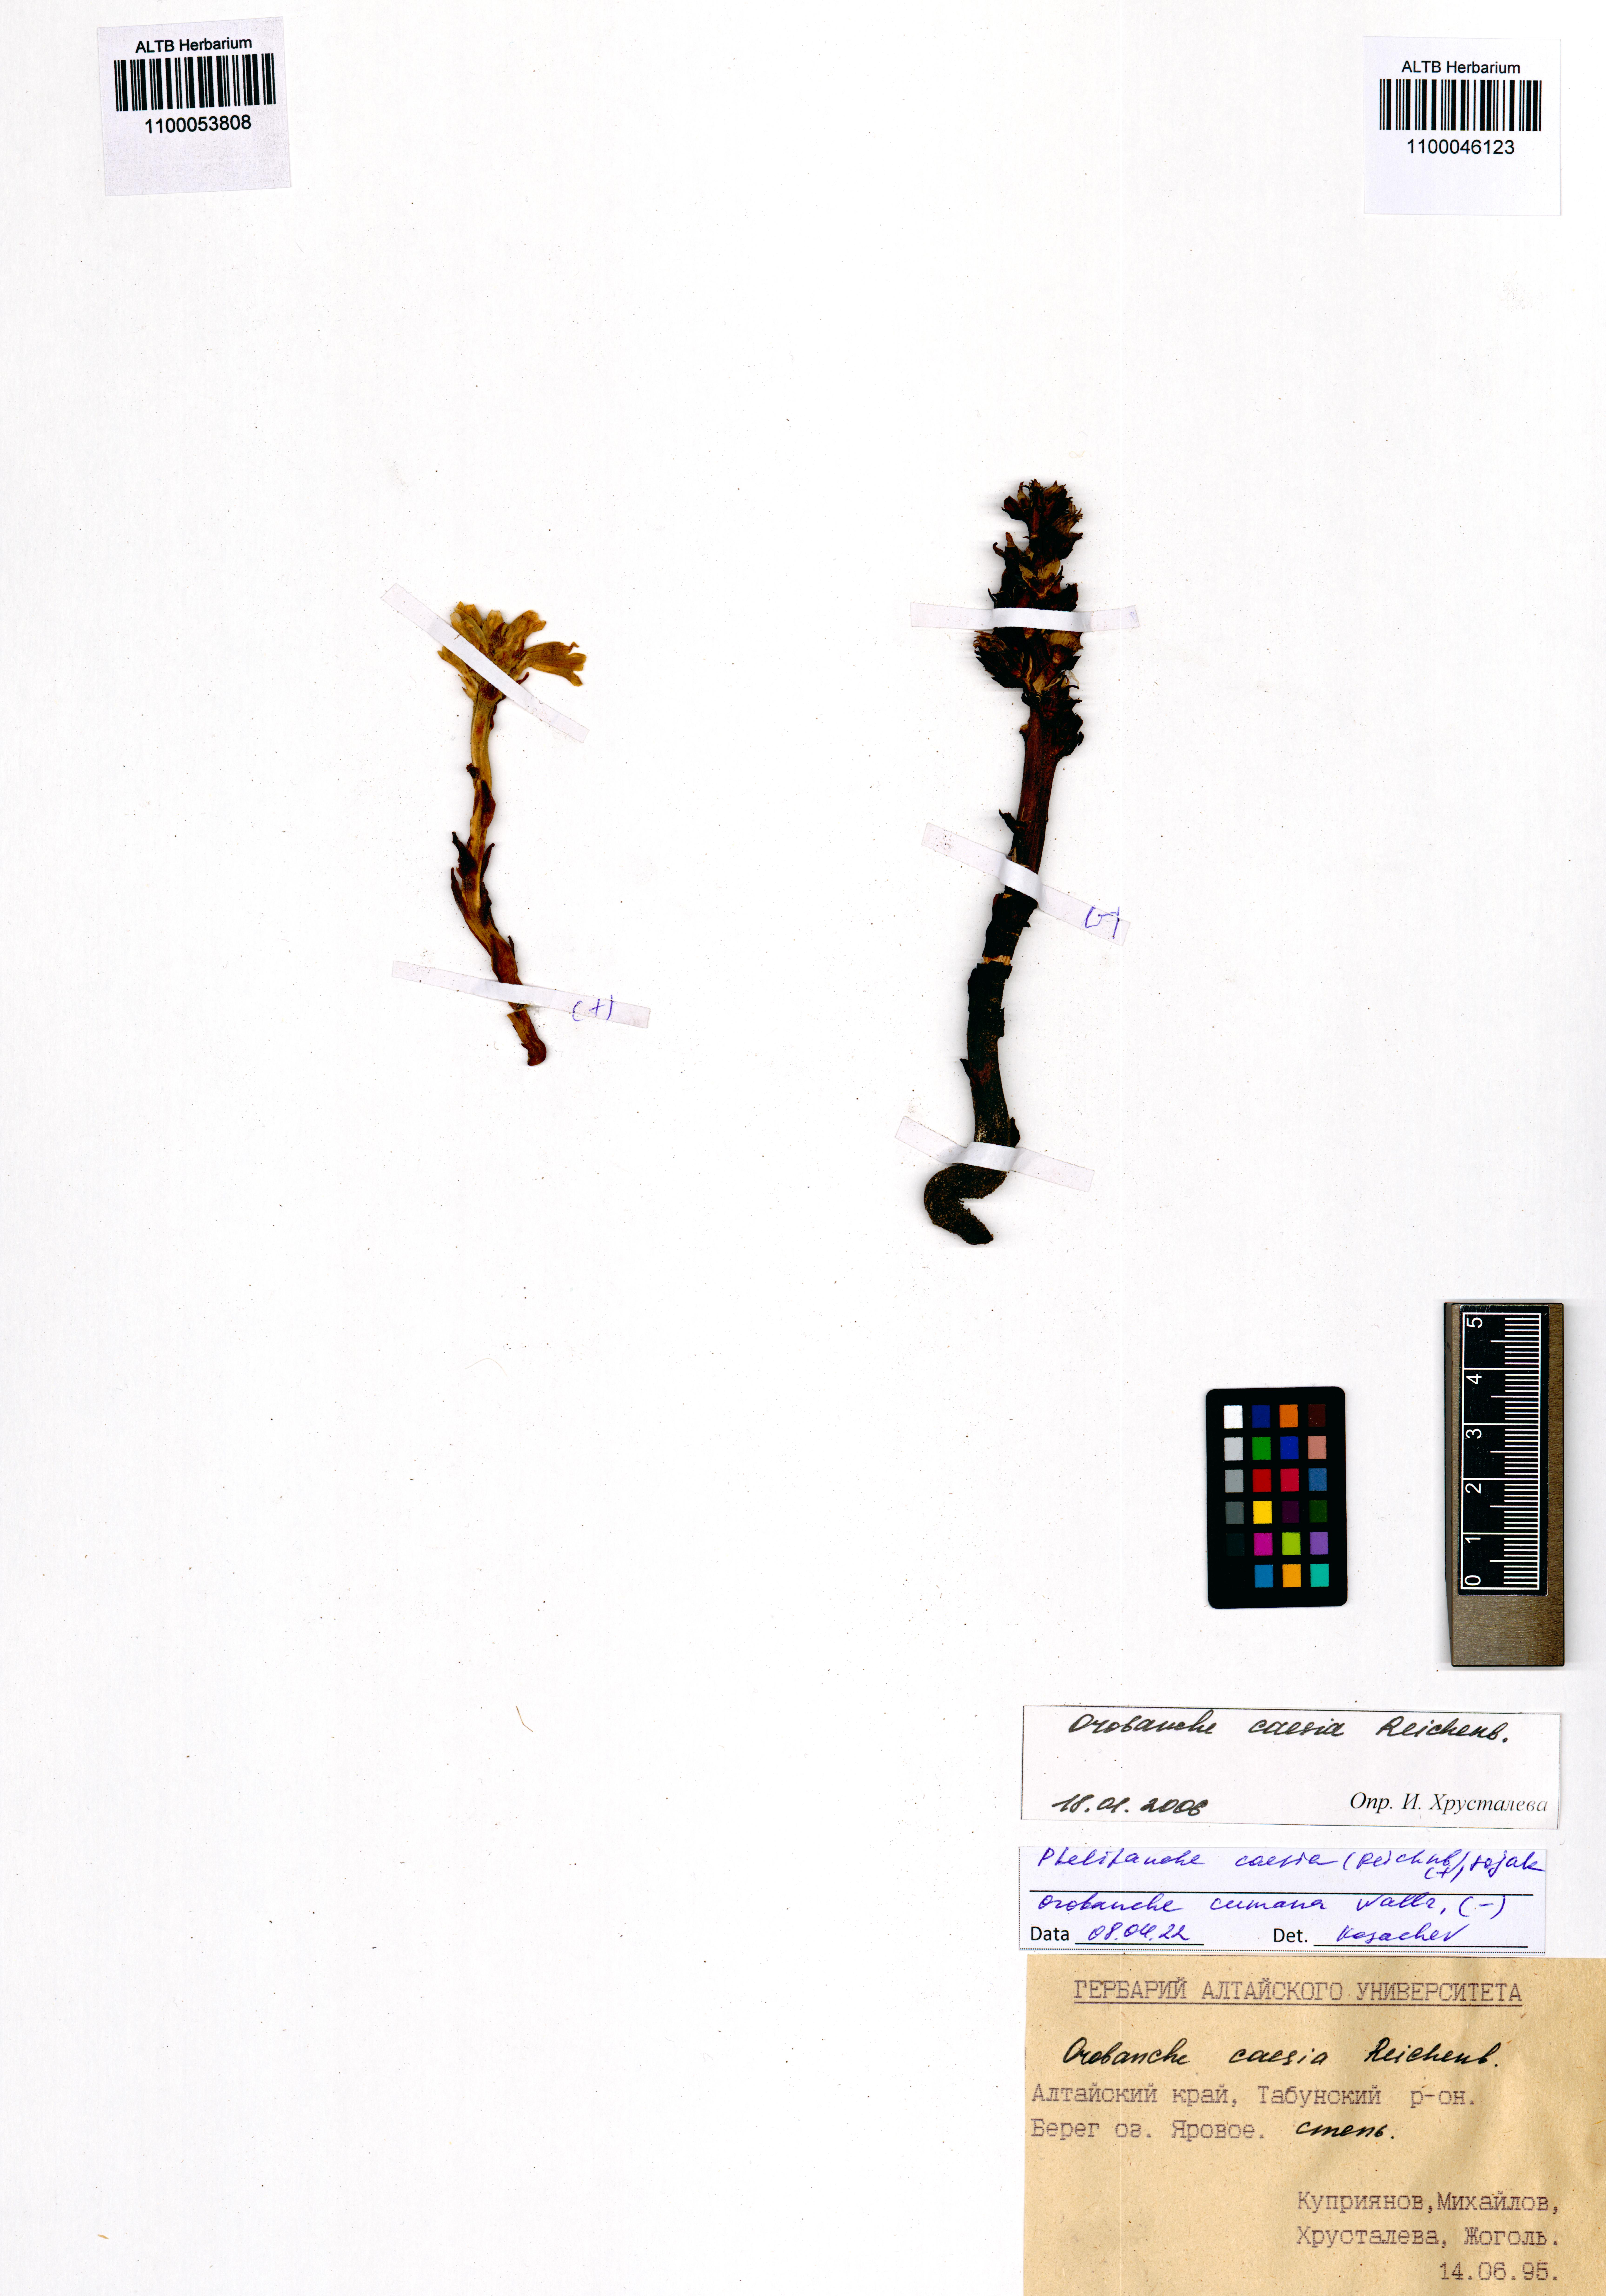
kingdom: Plantae
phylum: Tracheophyta
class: Magnoliopsida
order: Lamiales
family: Orobanchaceae
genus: Phelipanche
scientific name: Phelipanche caesia
